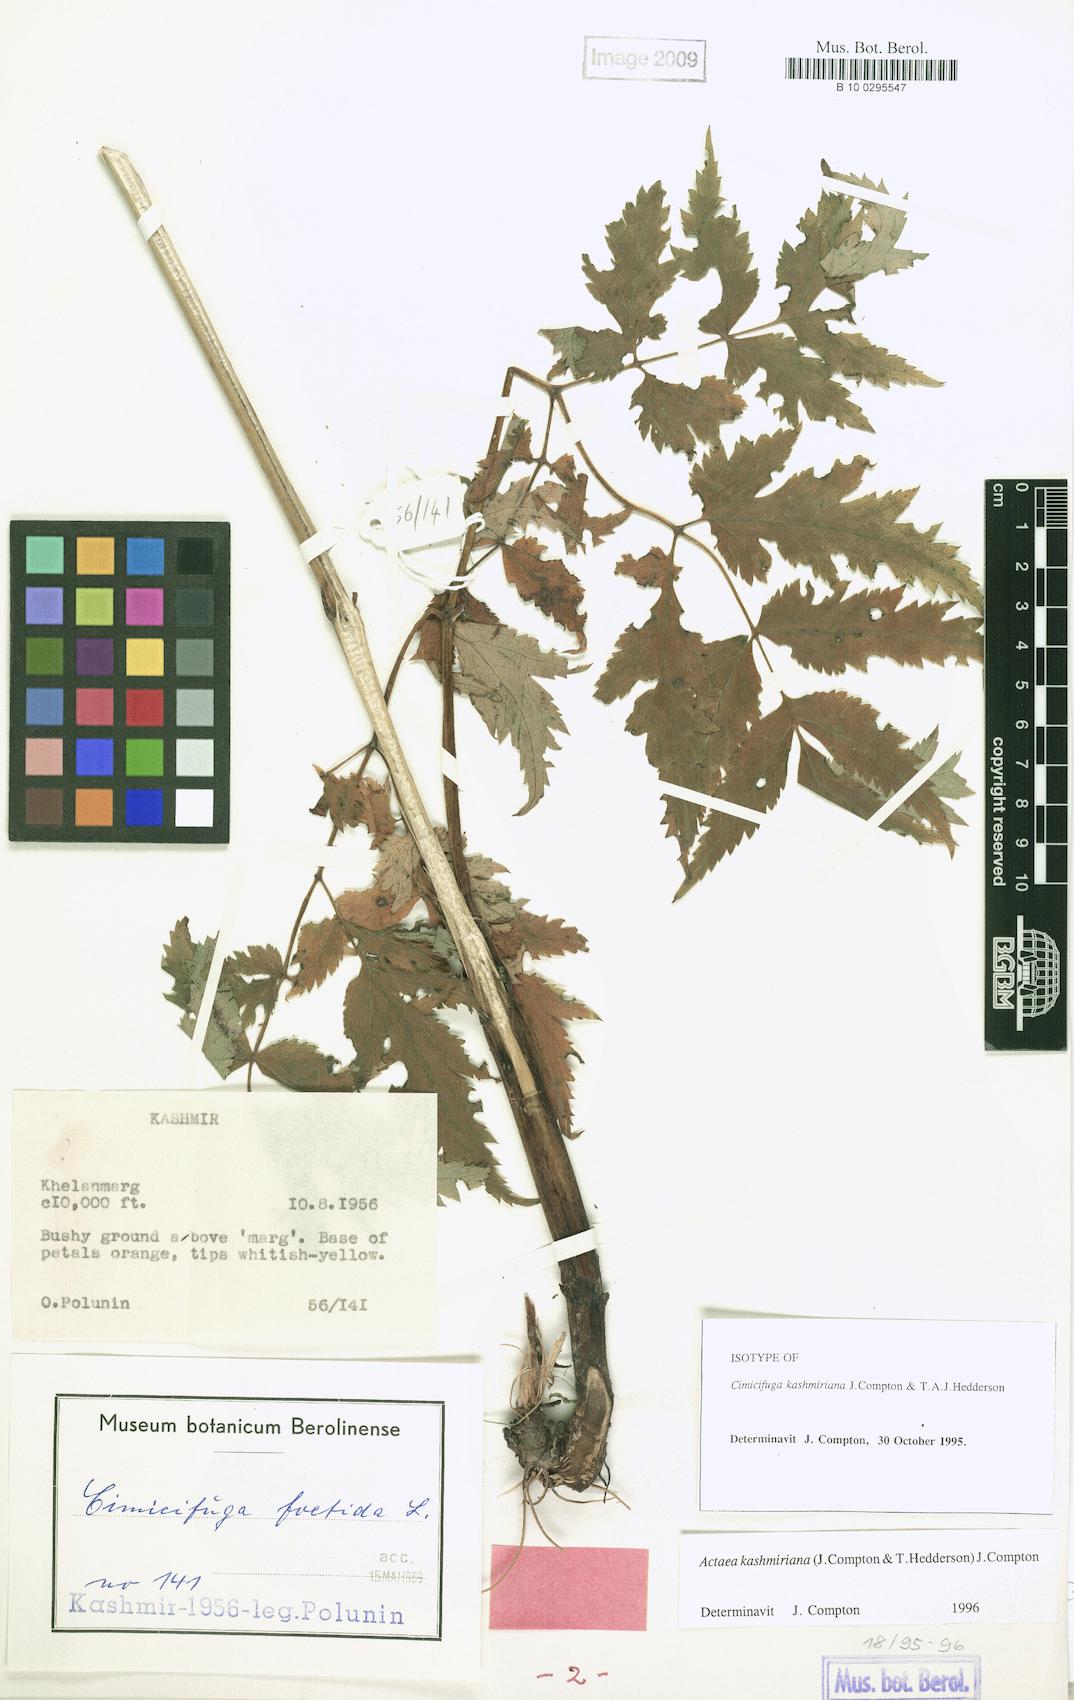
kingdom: Plantae
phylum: Tracheophyta
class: Magnoliopsida
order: Ranunculales
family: Ranunculaceae
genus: Actaea
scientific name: Actaea kashmiriana
